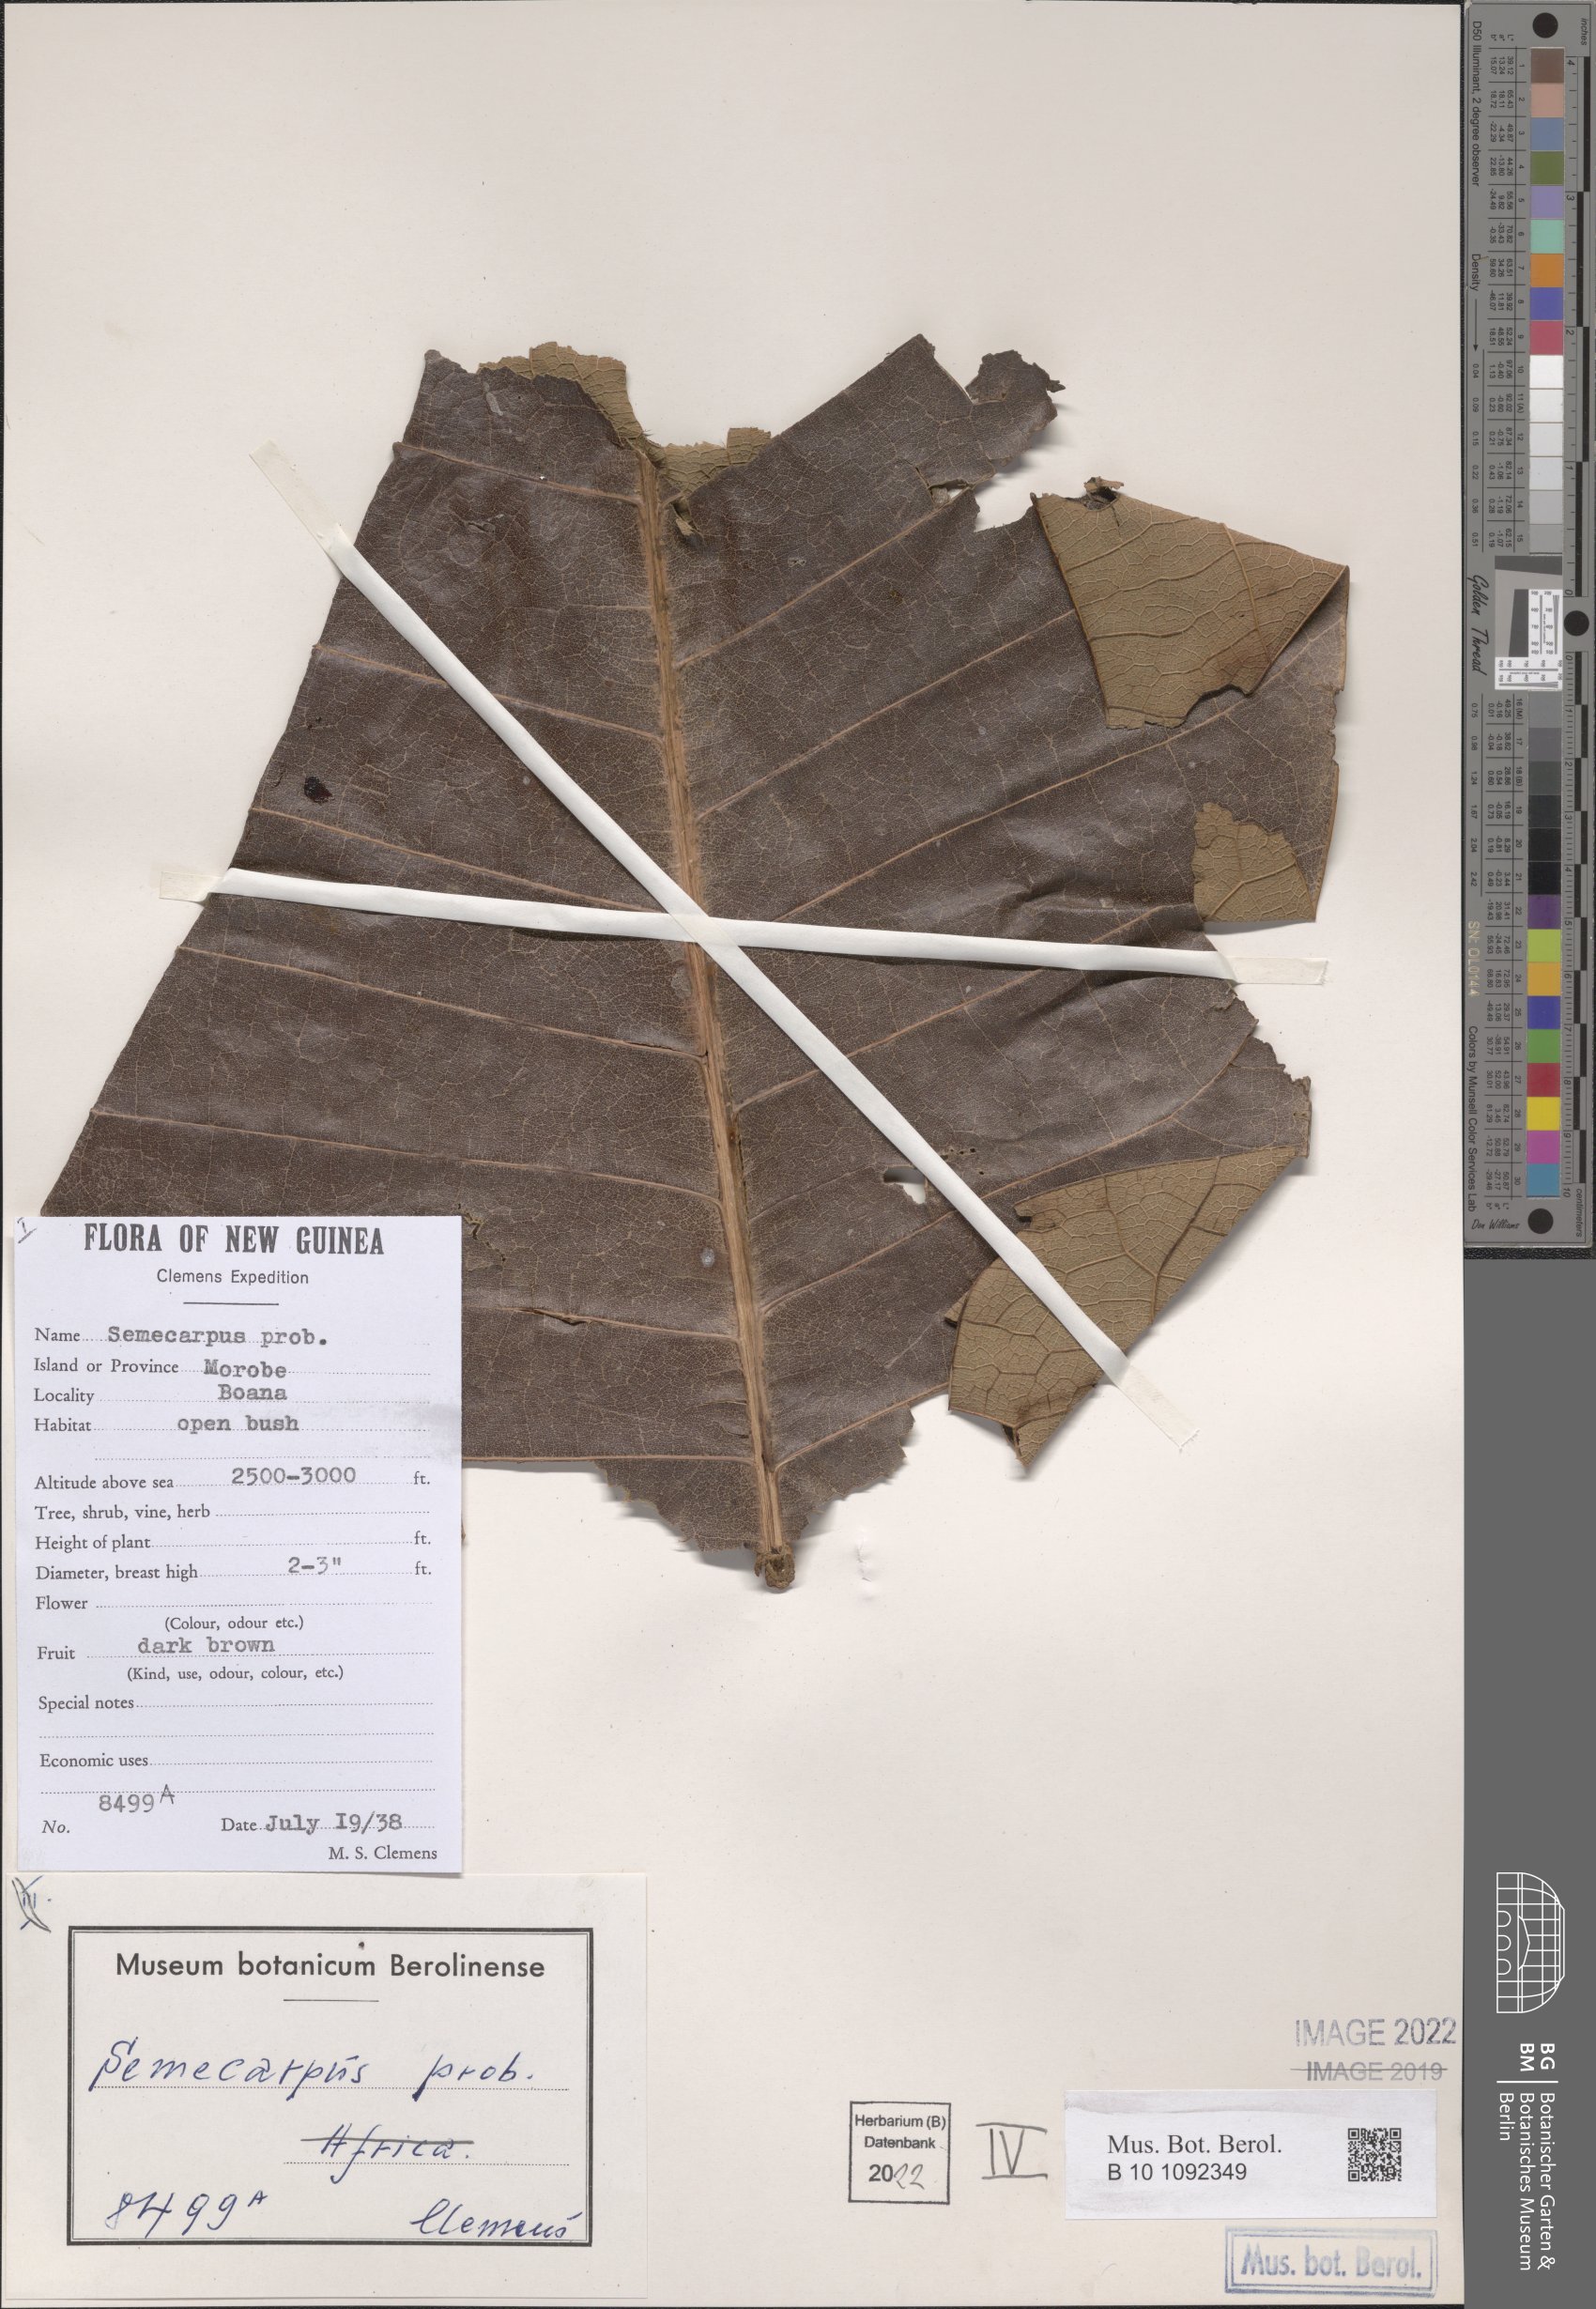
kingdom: Plantae
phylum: Tracheophyta
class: Magnoliopsida
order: Sapindales
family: Anacardiaceae
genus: Semecarpus
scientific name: Semecarpus
